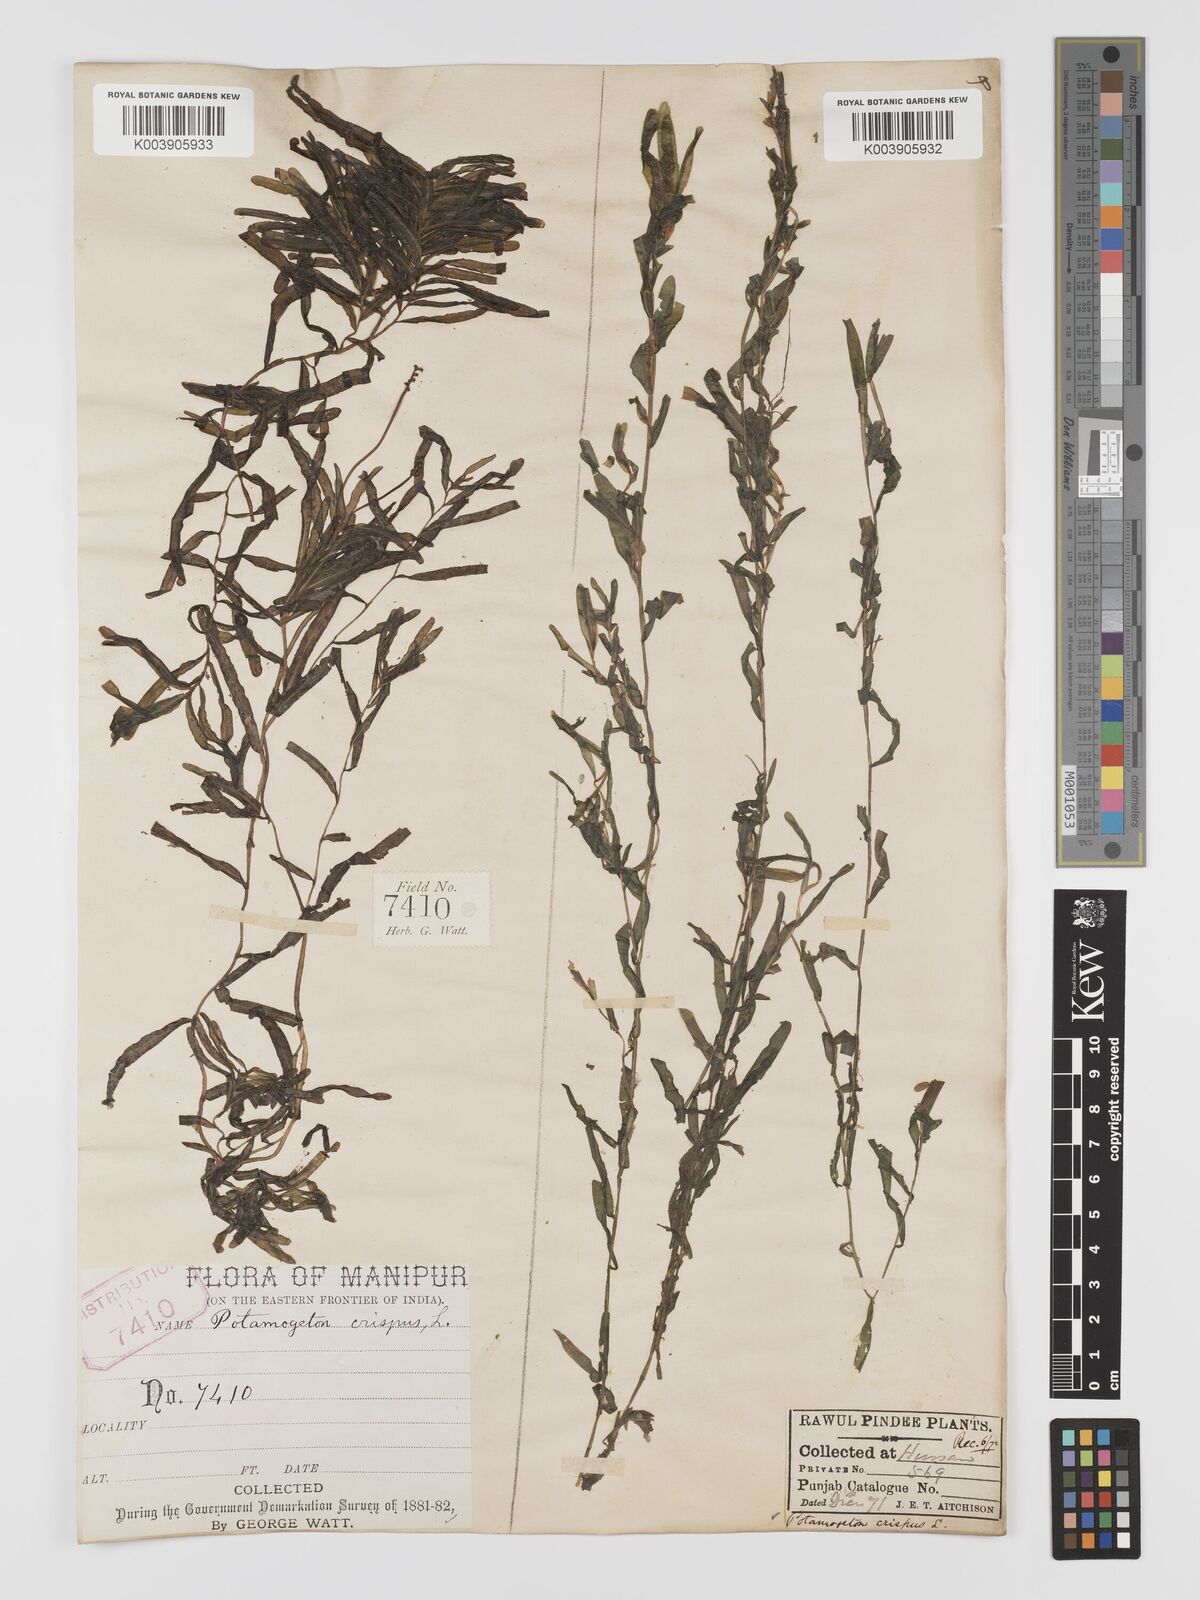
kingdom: Plantae
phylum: Tracheophyta
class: Liliopsida
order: Alismatales
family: Potamogetonaceae
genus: Potamogeton
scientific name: Potamogeton crispus
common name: Curled pondweed
